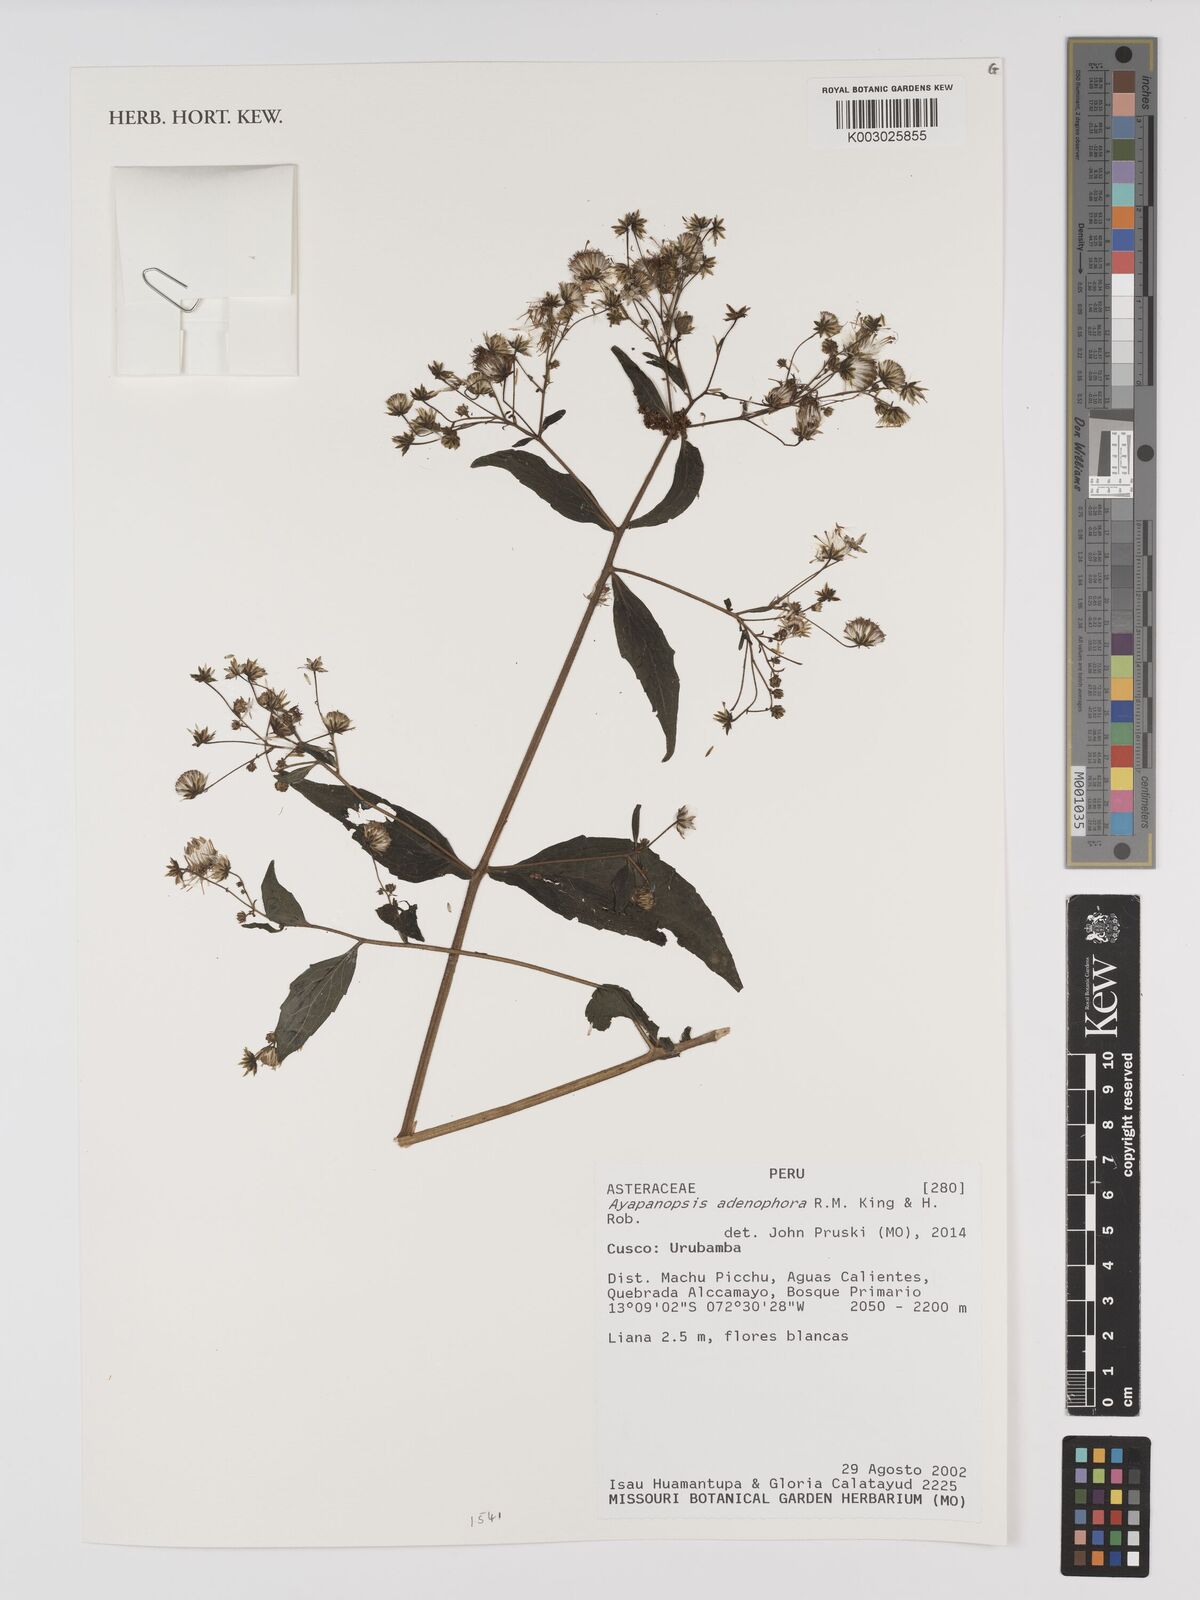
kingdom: Plantae
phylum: Tracheophyta
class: Magnoliopsida
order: Asterales
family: Asteraceae
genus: Ayapanopsis
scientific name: Ayapanopsis adenophora
